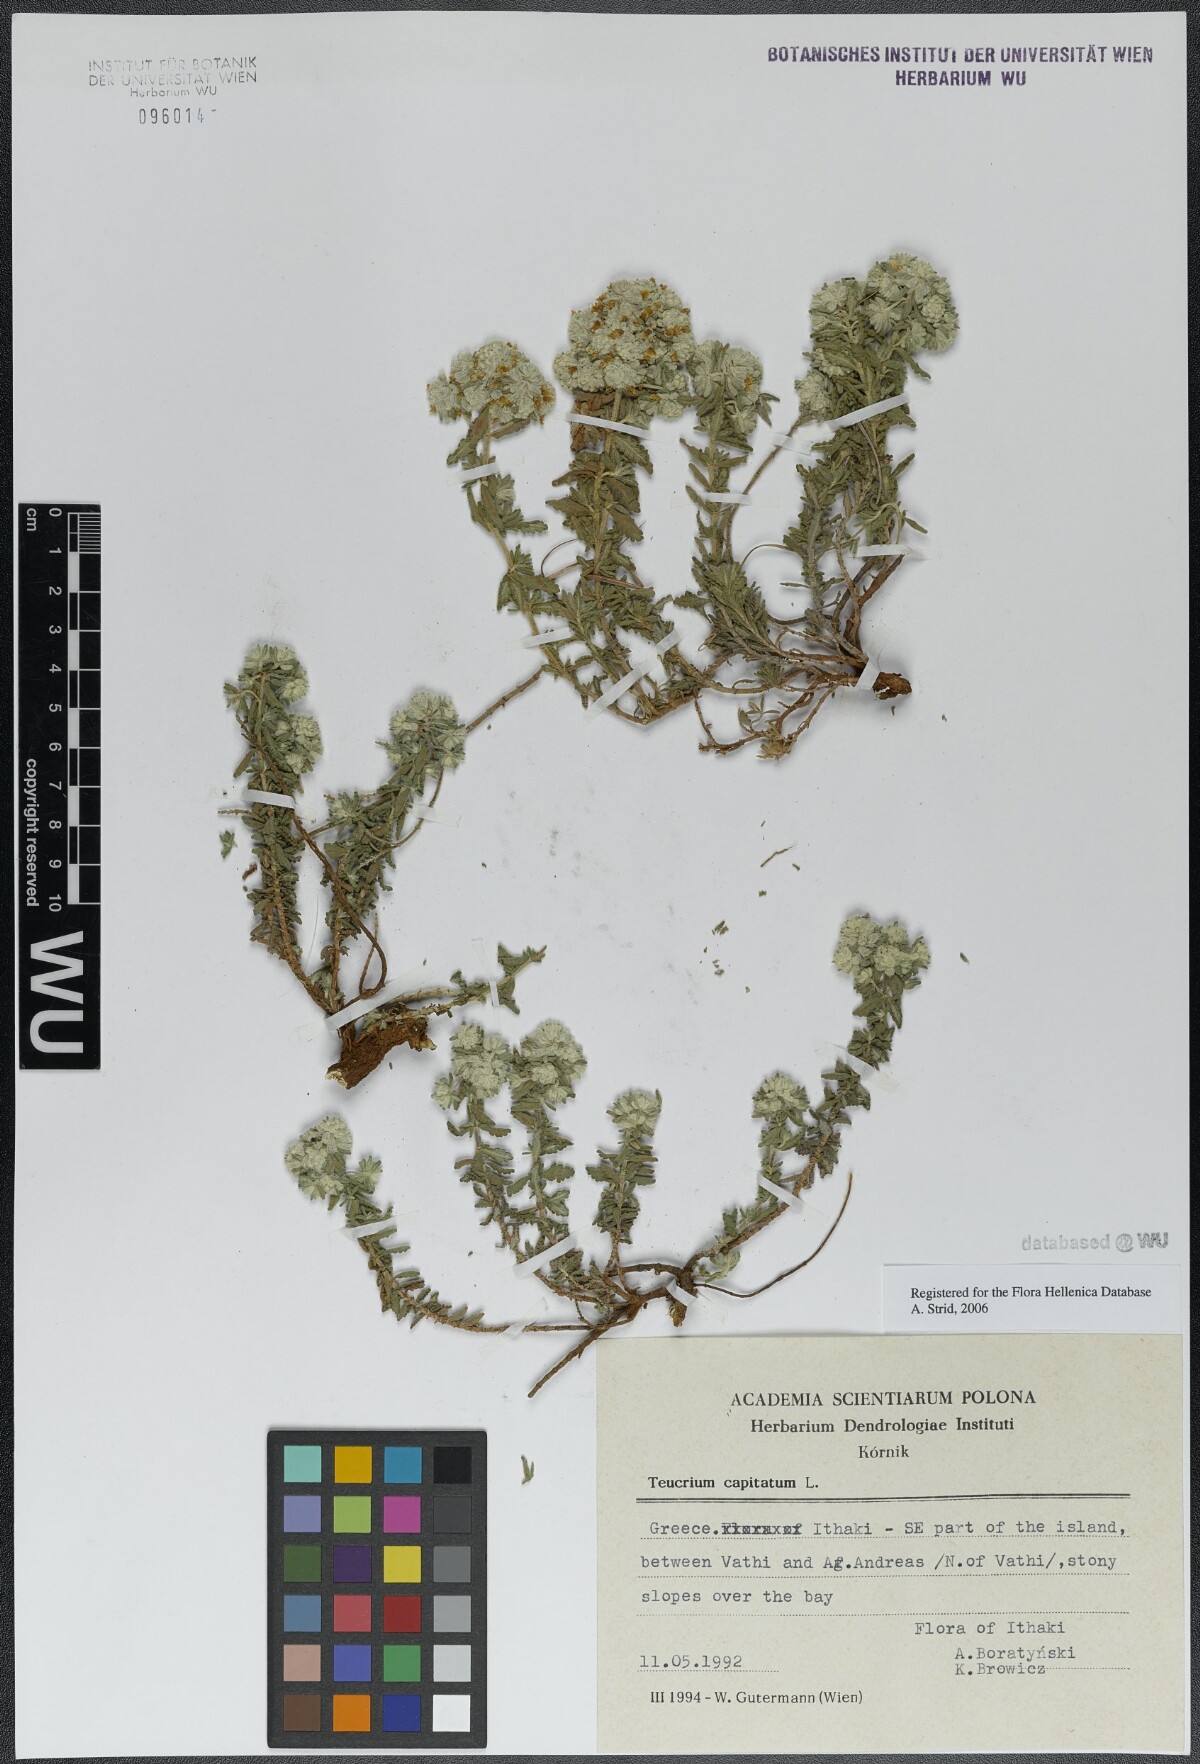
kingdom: Plantae
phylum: Tracheophyta
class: Magnoliopsida
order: Lamiales
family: Lamiaceae
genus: Teucrium
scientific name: Teucrium capitatum
